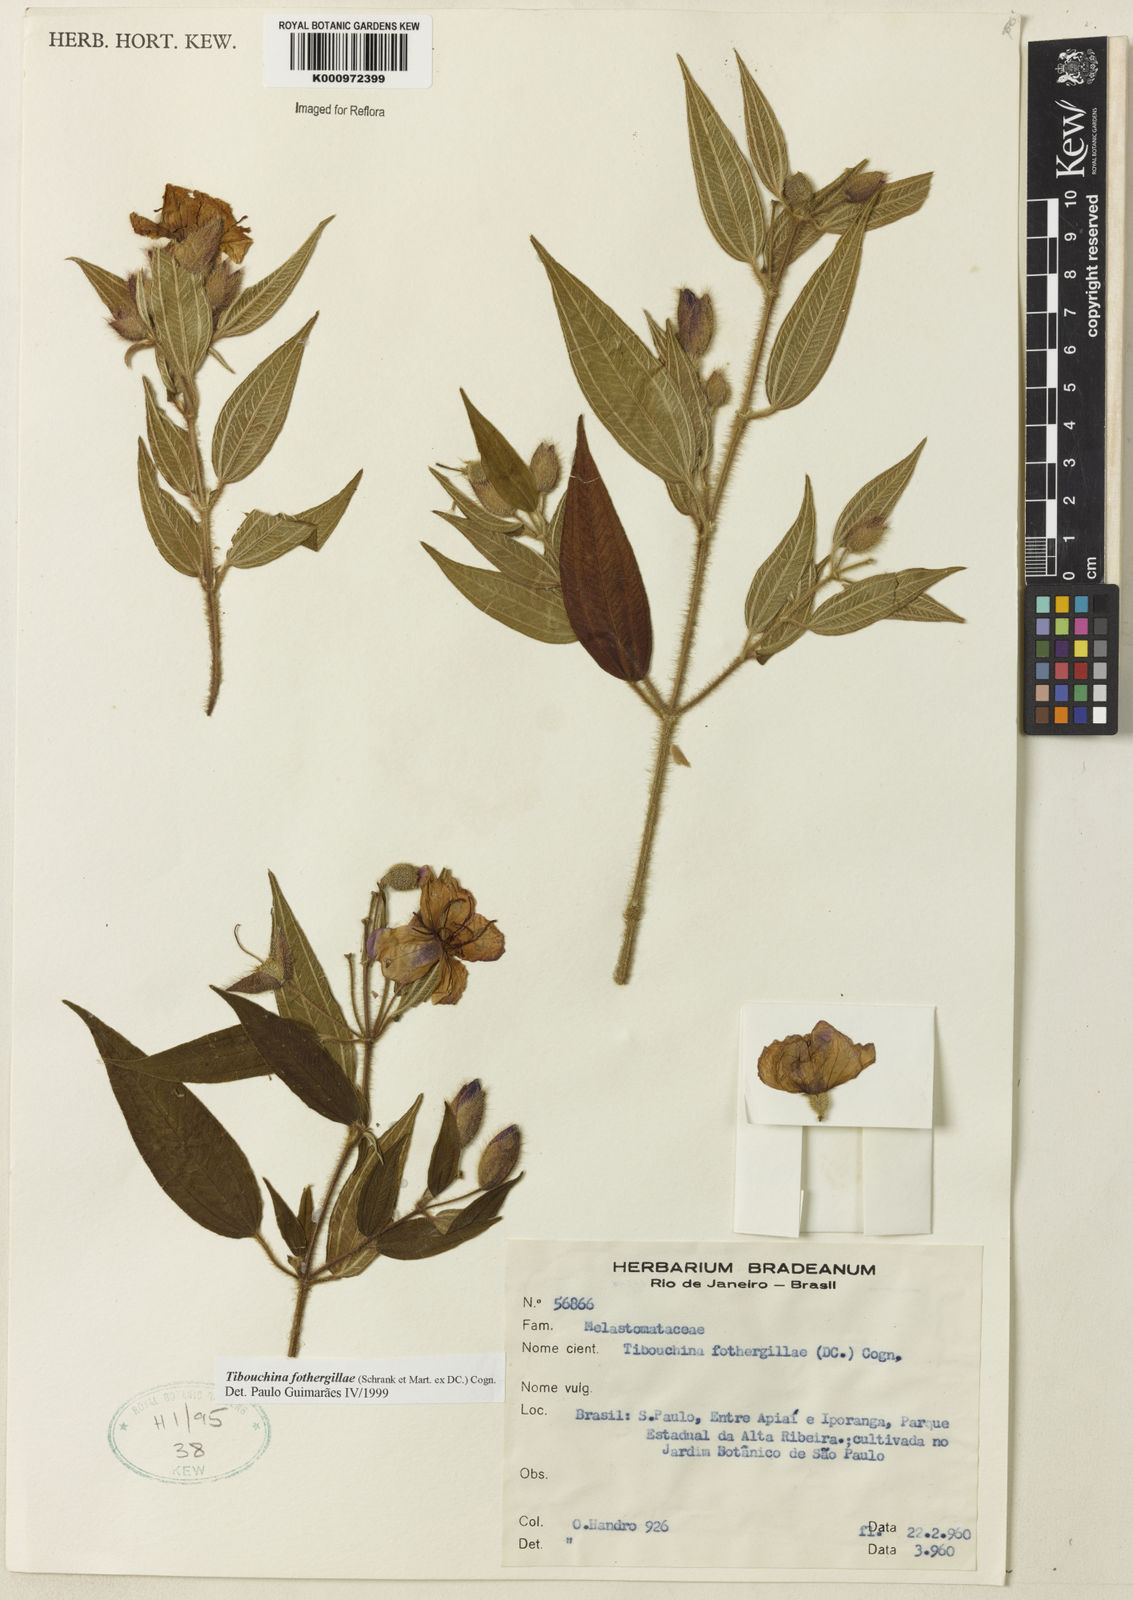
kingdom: Plantae
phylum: Tracheophyta
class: Magnoliopsida
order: Myrtales
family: Melastomataceae
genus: Pleroma
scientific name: Pleroma fothergillae
